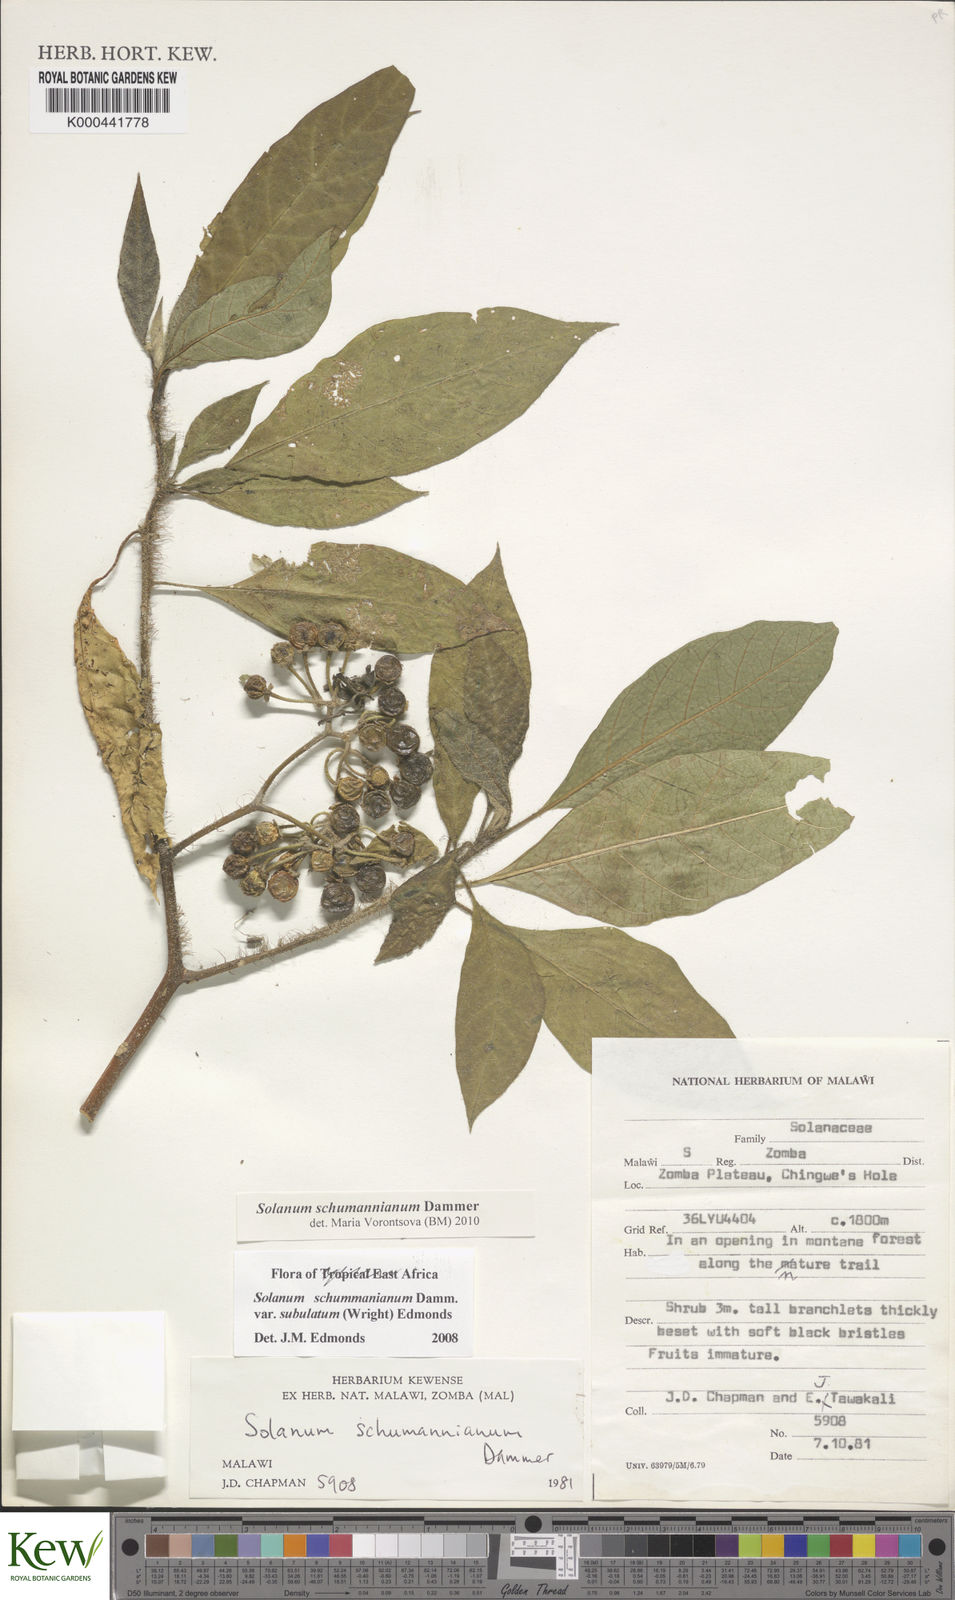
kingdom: Plantae
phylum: Tracheophyta
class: Magnoliopsida
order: Solanales
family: Solanaceae
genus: Solanum
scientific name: Solanum schumannianum
